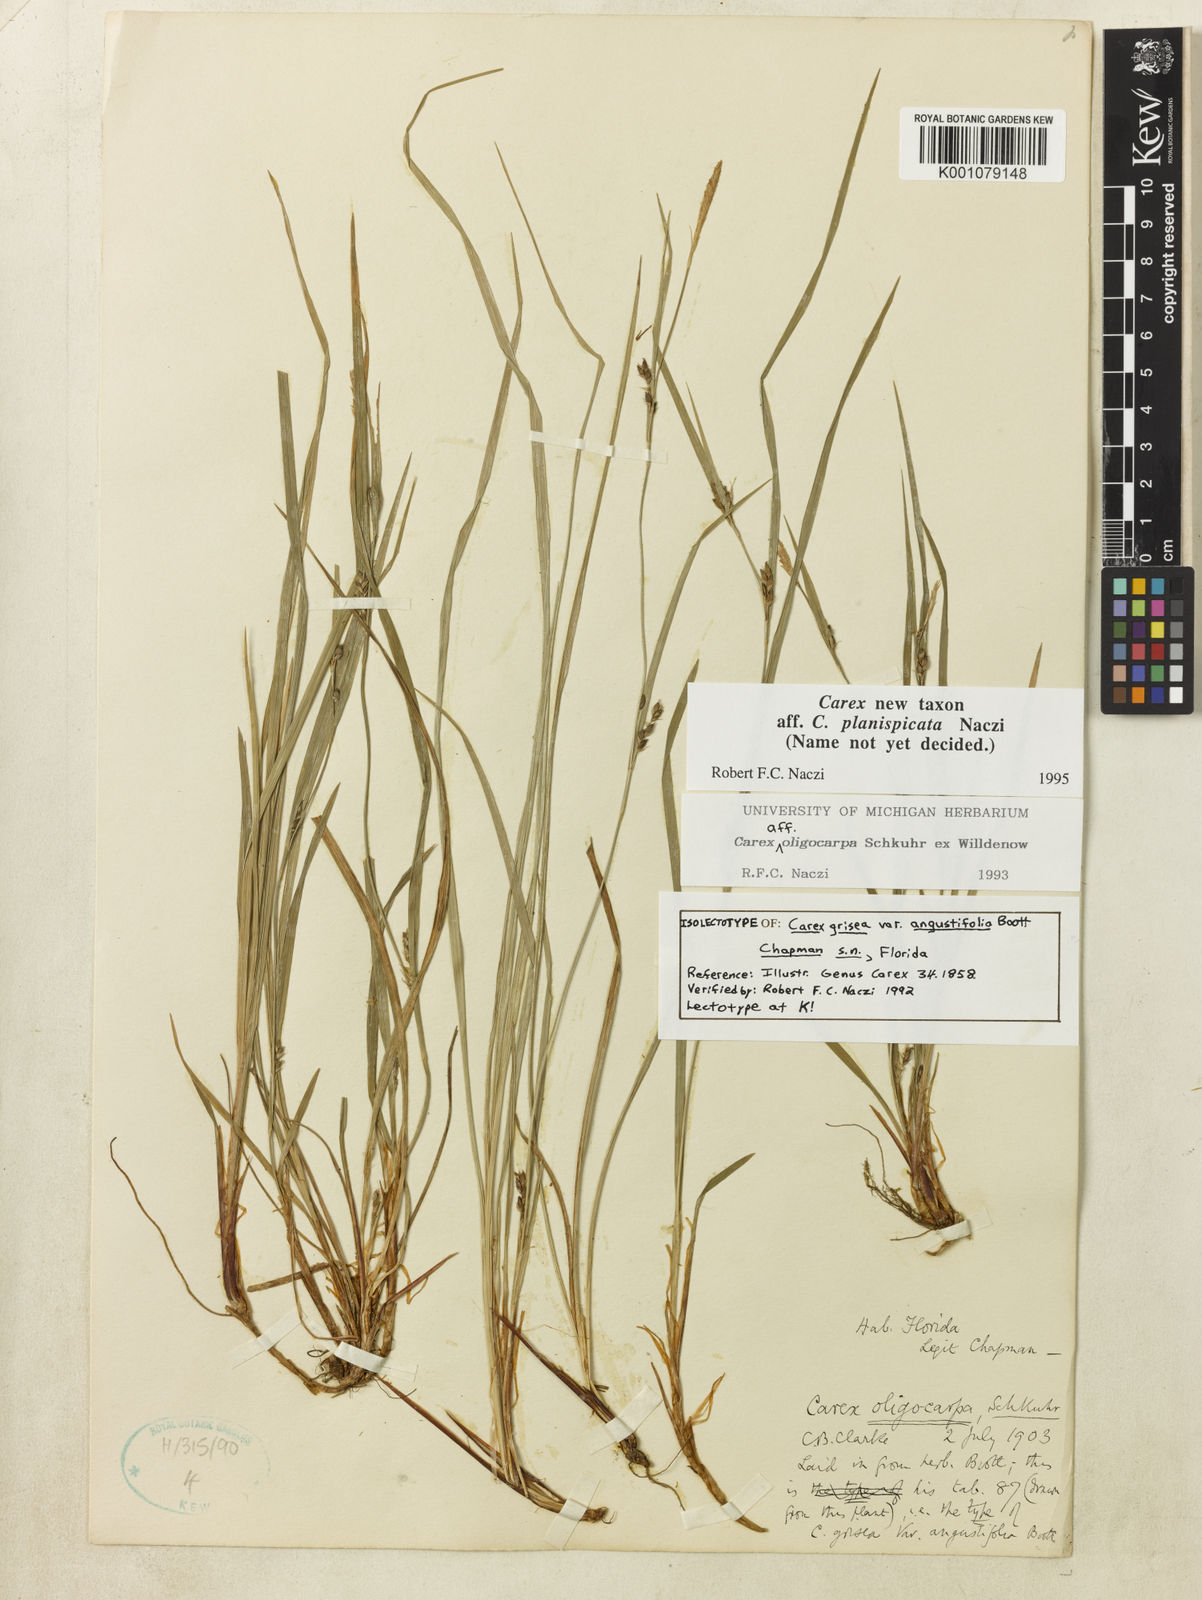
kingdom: Plantae
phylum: Tracheophyta
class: Liliopsida
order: Poales
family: Cyperaceae
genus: Carex
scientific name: Carex planispicata
